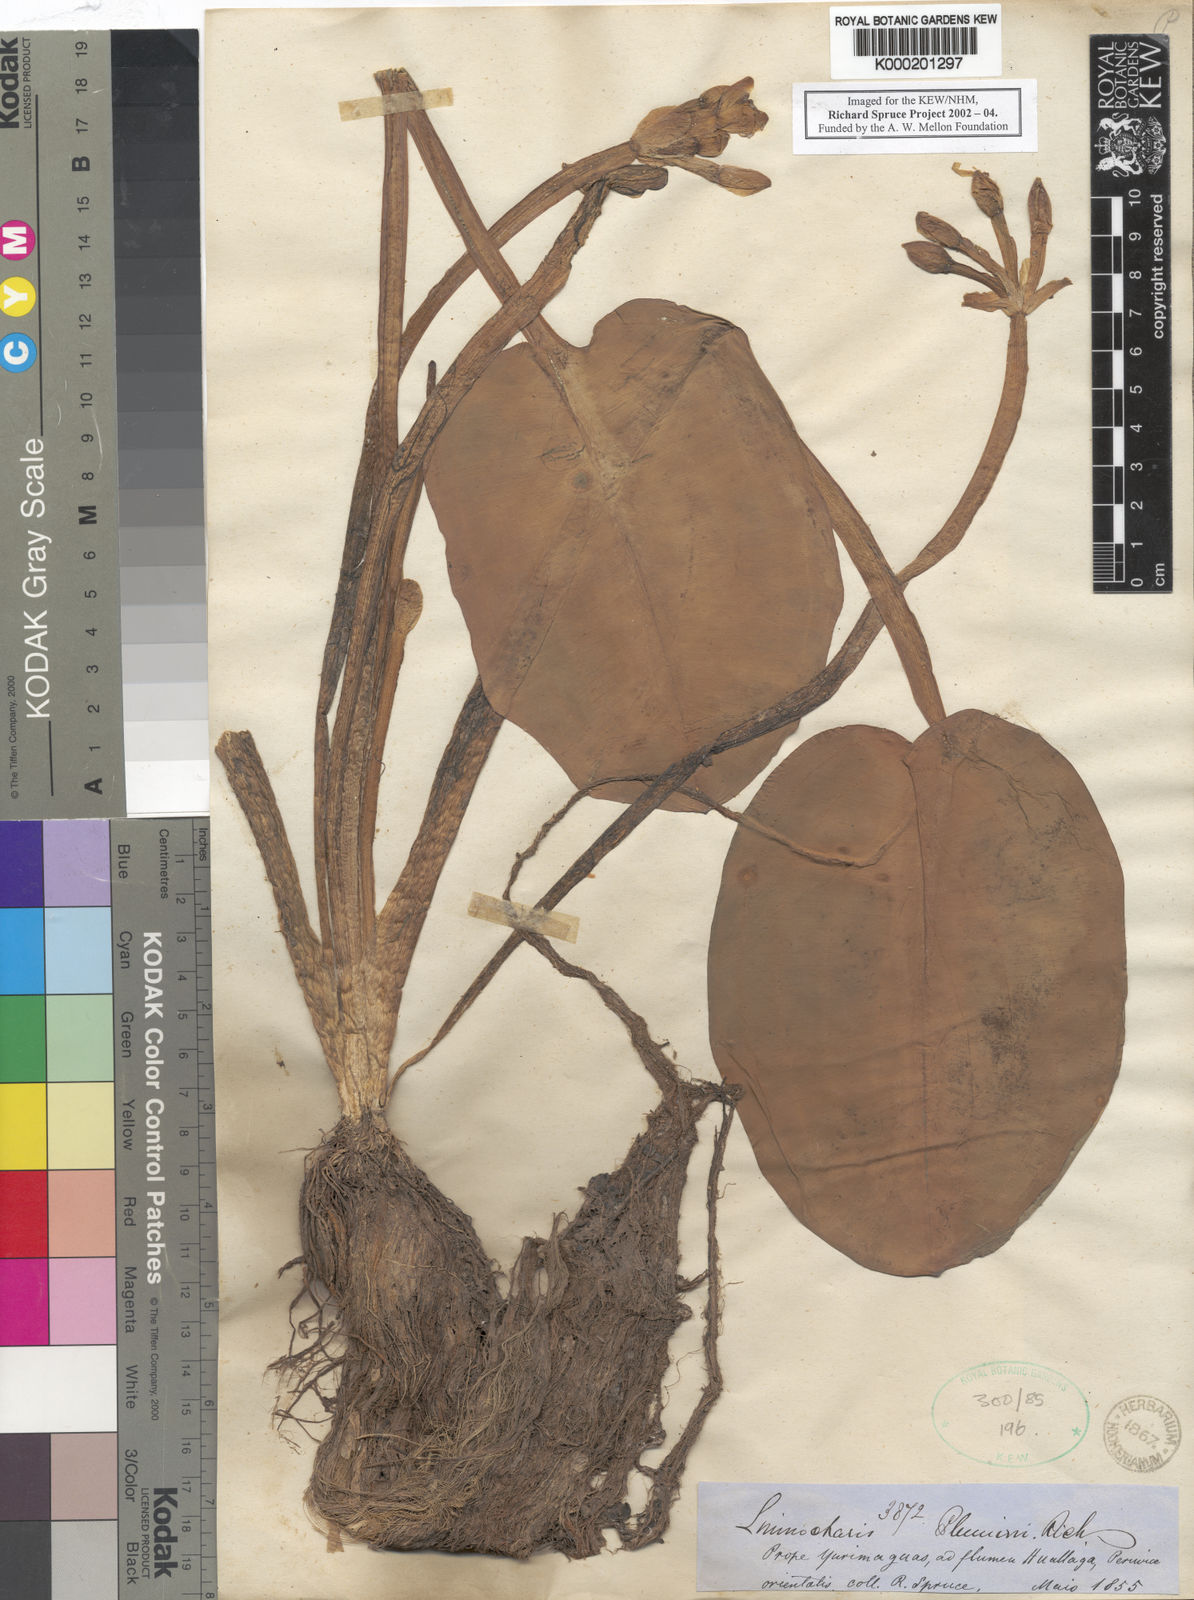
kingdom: Plantae
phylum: Tracheophyta
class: Liliopsida
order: Alismatales
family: Alismataceae
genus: Limnocharis
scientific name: Limnocharis flava
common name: Sawah-flower-rush
